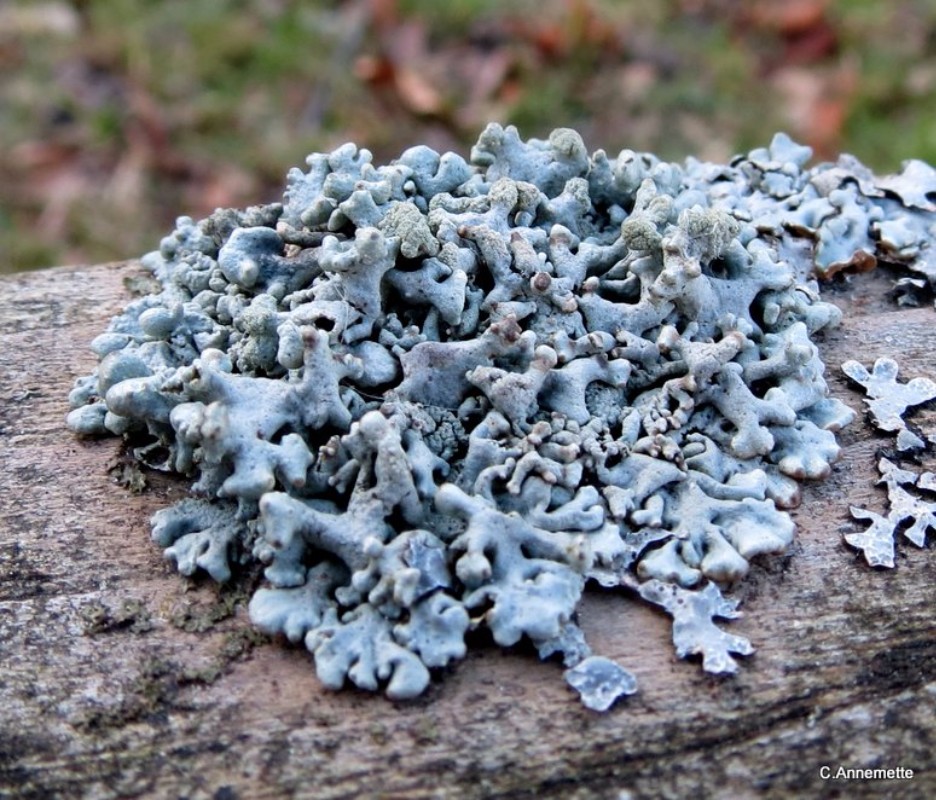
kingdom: Fungi
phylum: Ascomycota
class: Lecanoromycetes
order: Lecanorales
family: Parmeliaceae
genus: Hypogymnia
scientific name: Hypogymnia tubulosa
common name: finger-kvistlav
